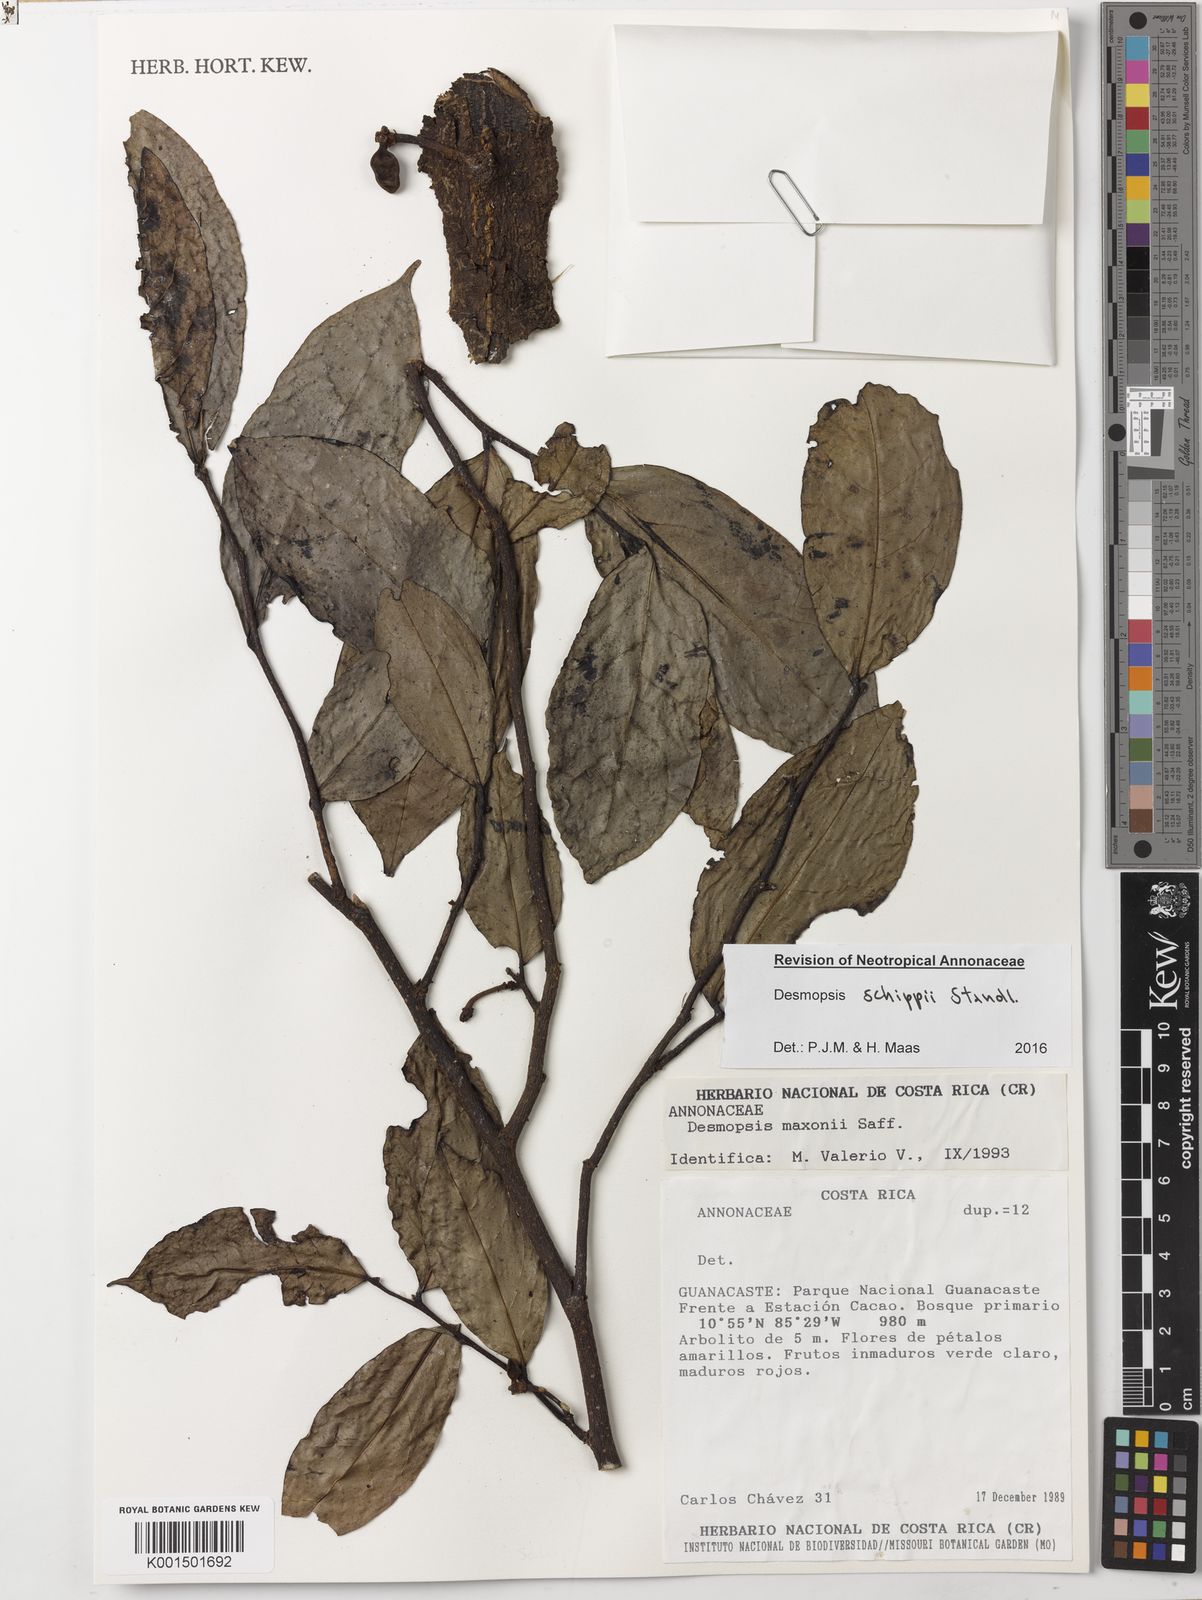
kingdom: Plantae
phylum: Tracheophyta
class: Magnoliopsida
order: Magnoliales
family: Annonaceae
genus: Desmopsis
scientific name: Desmopsis schippii
